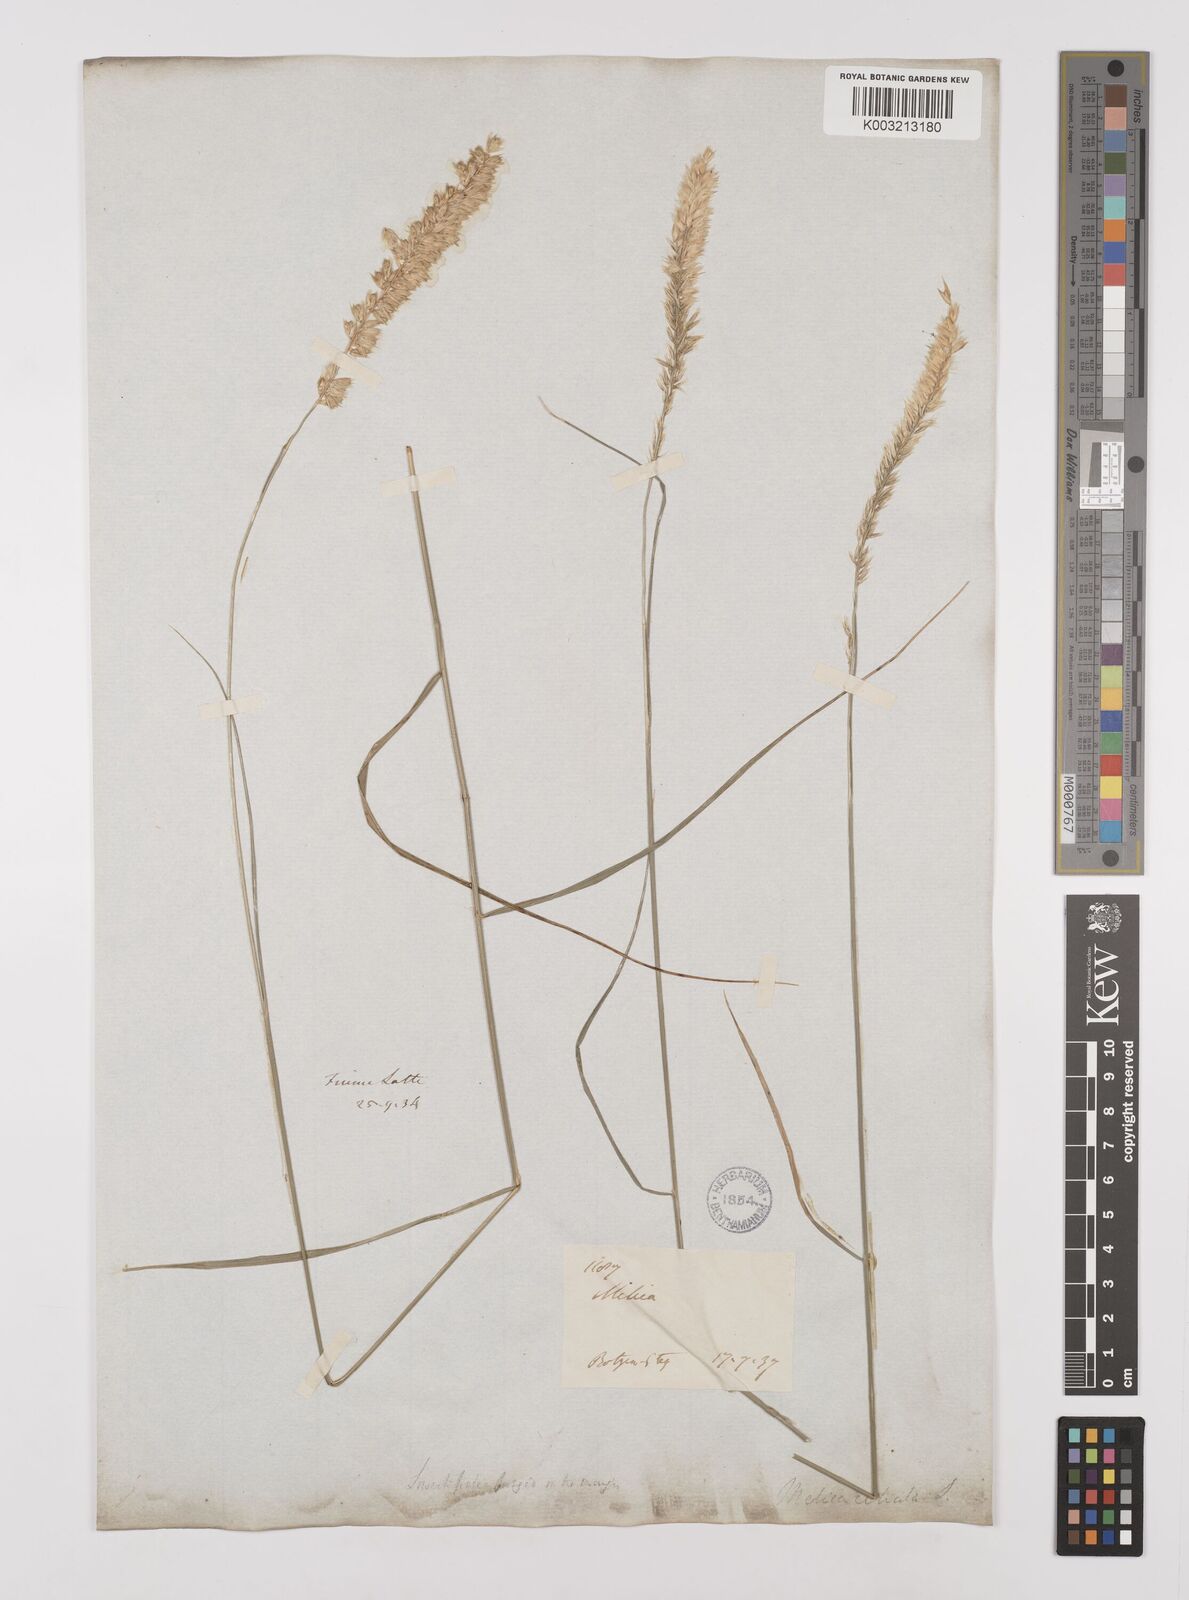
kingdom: Plantae
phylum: Tracheophyta
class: Liliopsida
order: Poales
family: Poaceae
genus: Melica
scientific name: Melica ciliata
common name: Hairy melicgrass
